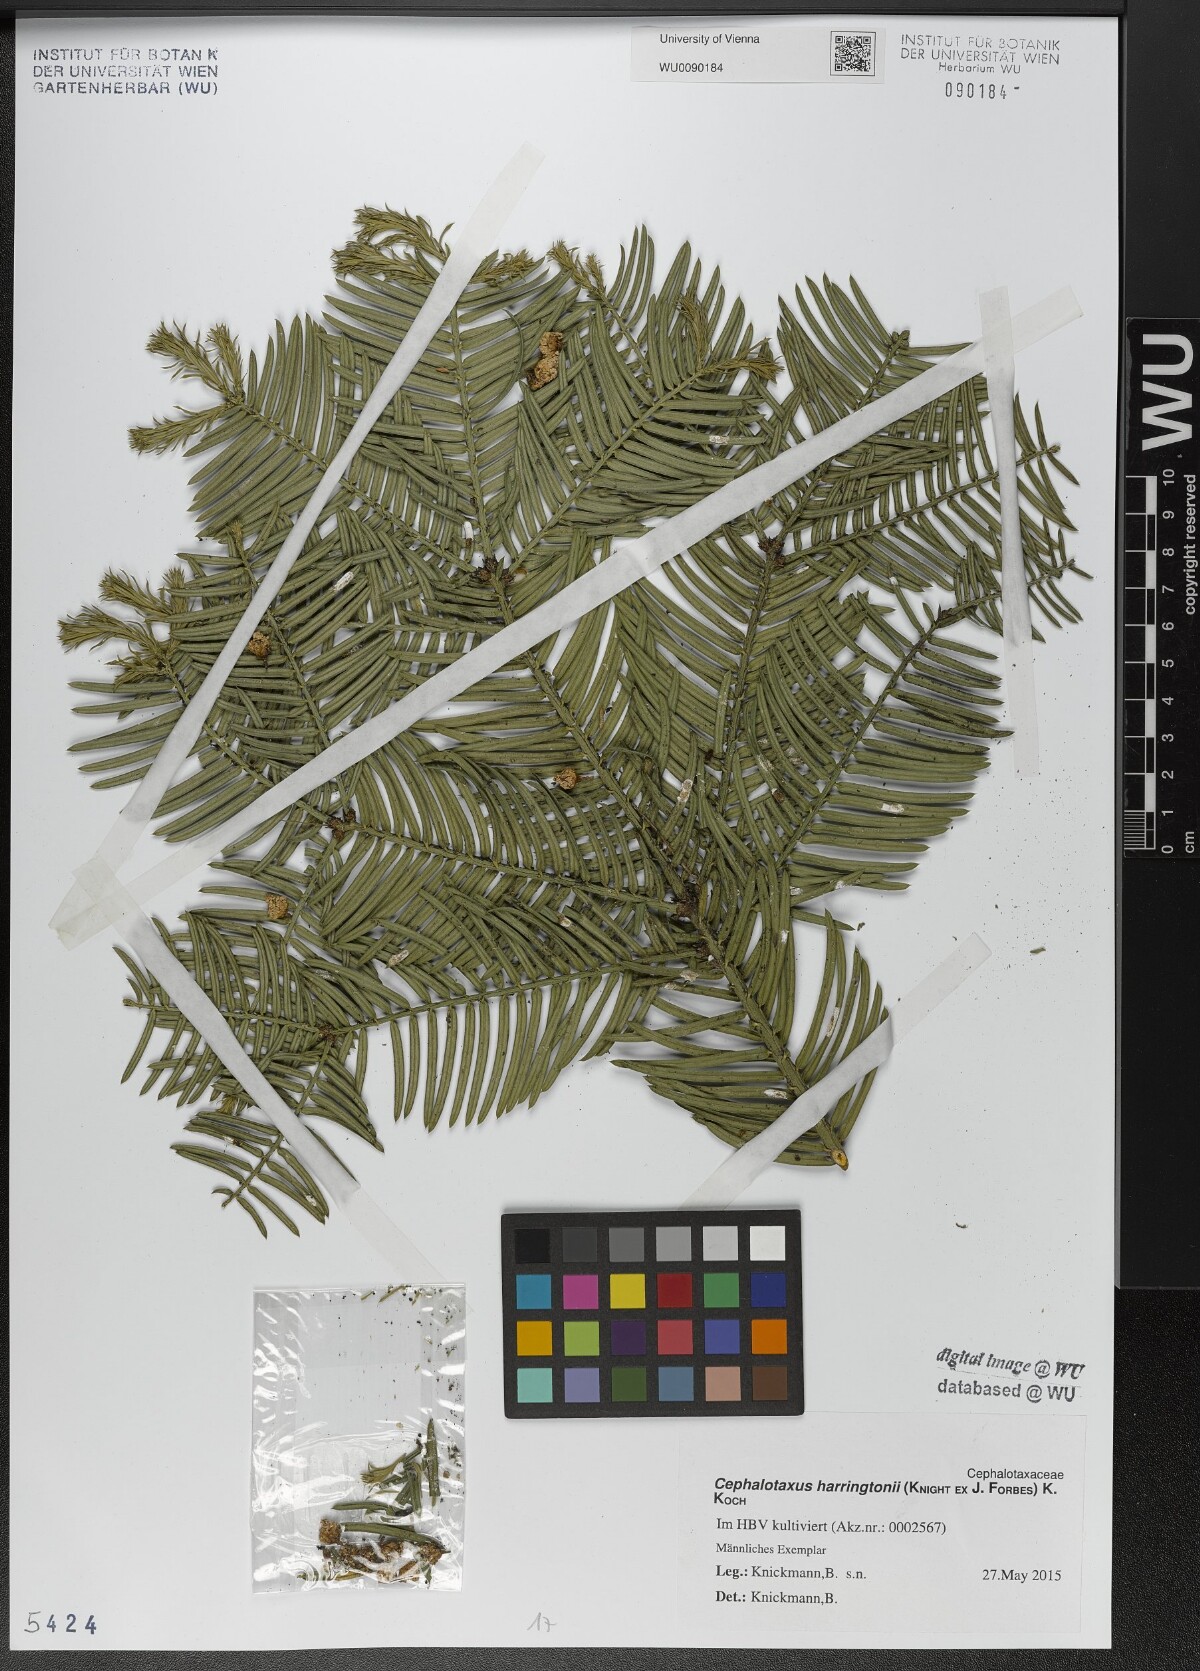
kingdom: Plantae
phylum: Tracheophyta
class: Pinopsida
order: Pinales
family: Cephalotaxaceae
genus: Cephalotaxus
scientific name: Cephalotaxus harringtonia
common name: Japanese plum-yew
